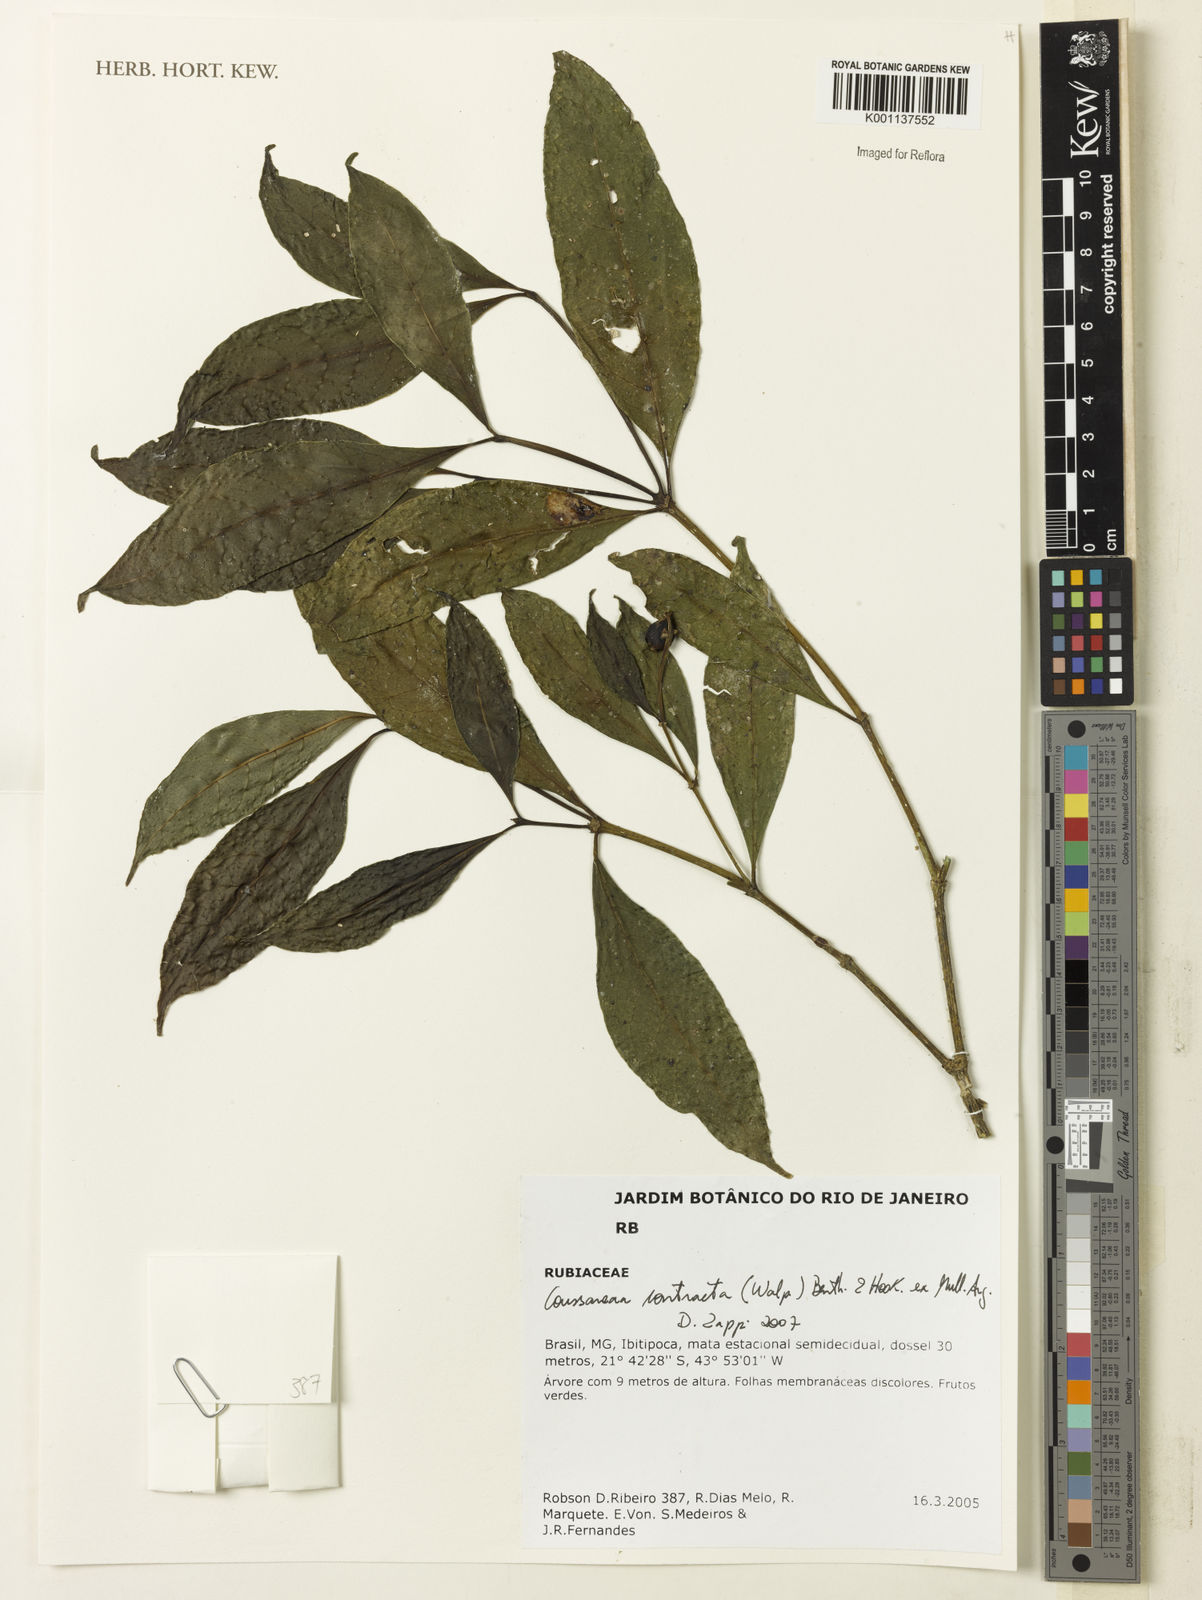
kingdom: Plantae
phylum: Tracheophyta
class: Magnoliopsida
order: Gentianales
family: Rubiaceae
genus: Coussarea
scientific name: Coussarea
